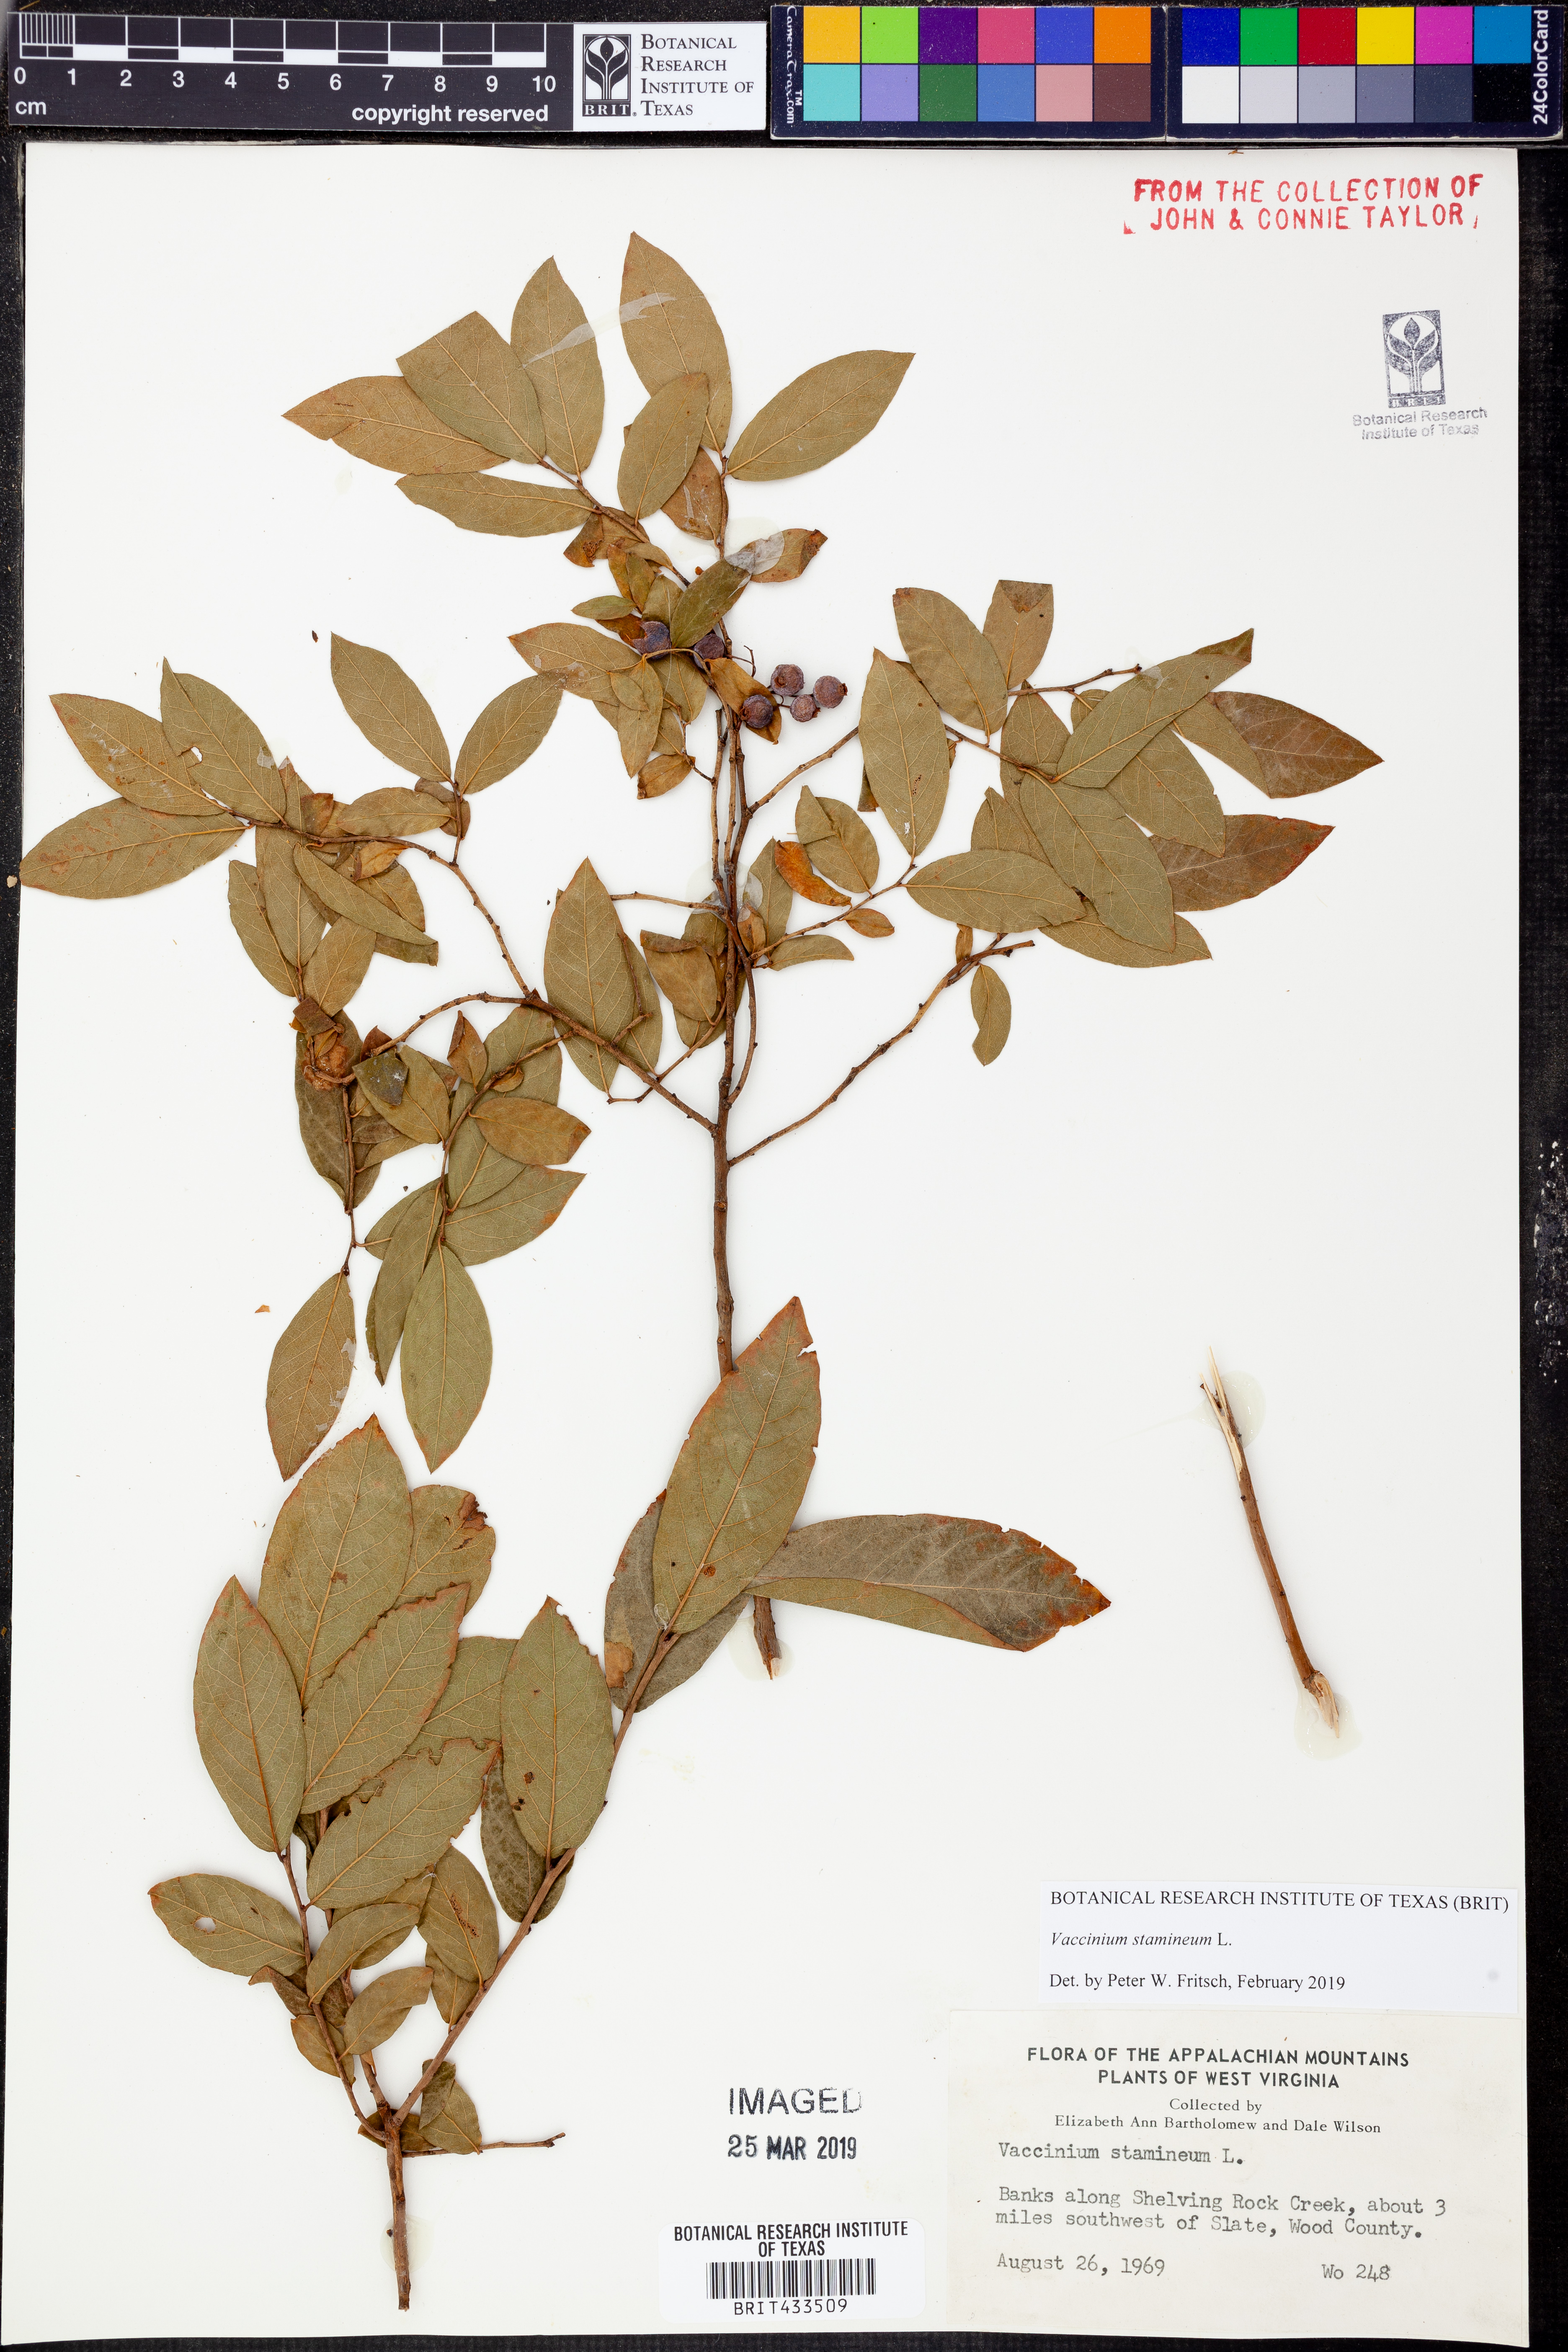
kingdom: Plantae
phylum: Tracheophyta
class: Magnoliopsida
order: Ericales
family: Ericaceae
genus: Vaccinium
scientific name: Vaccinium stamineum
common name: Deerberry
